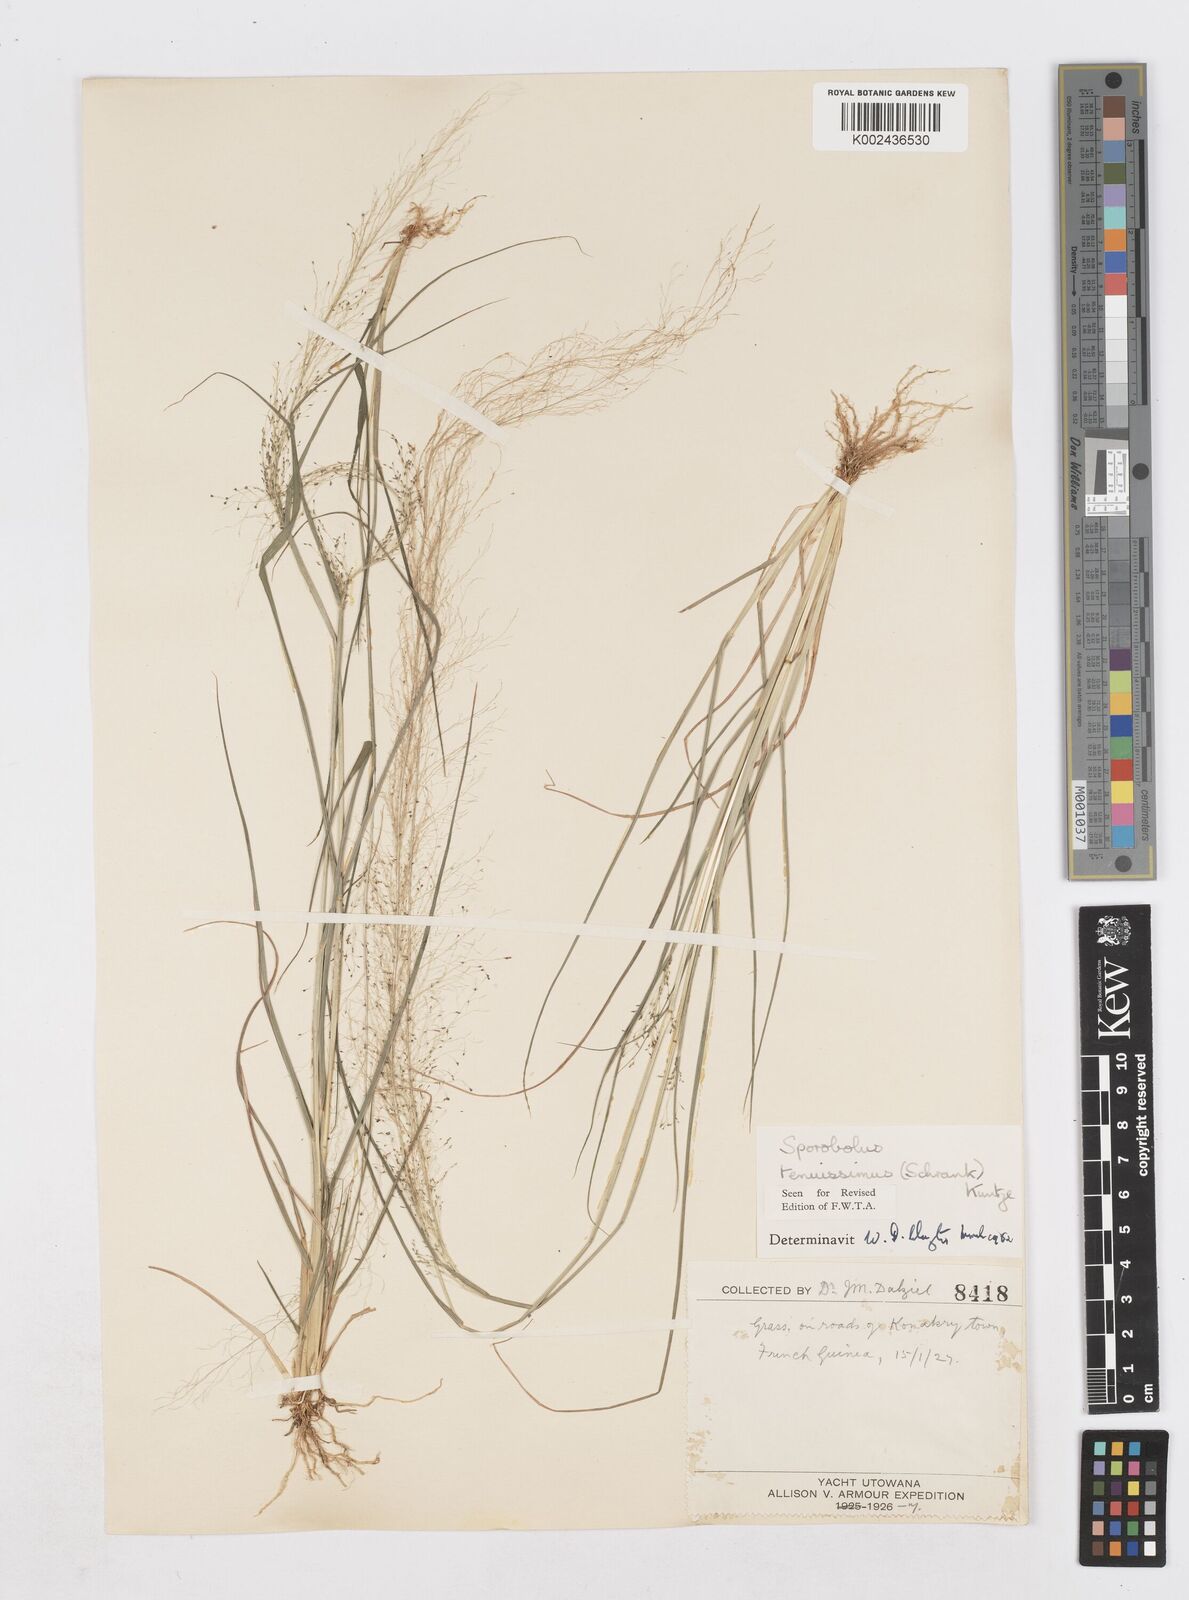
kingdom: Plantae
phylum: Tracheophyta
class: Liliopsida
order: Poales
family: Poaceae
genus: Sporobolus
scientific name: Sporobolus tenuissimus
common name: Tropical dropseed
